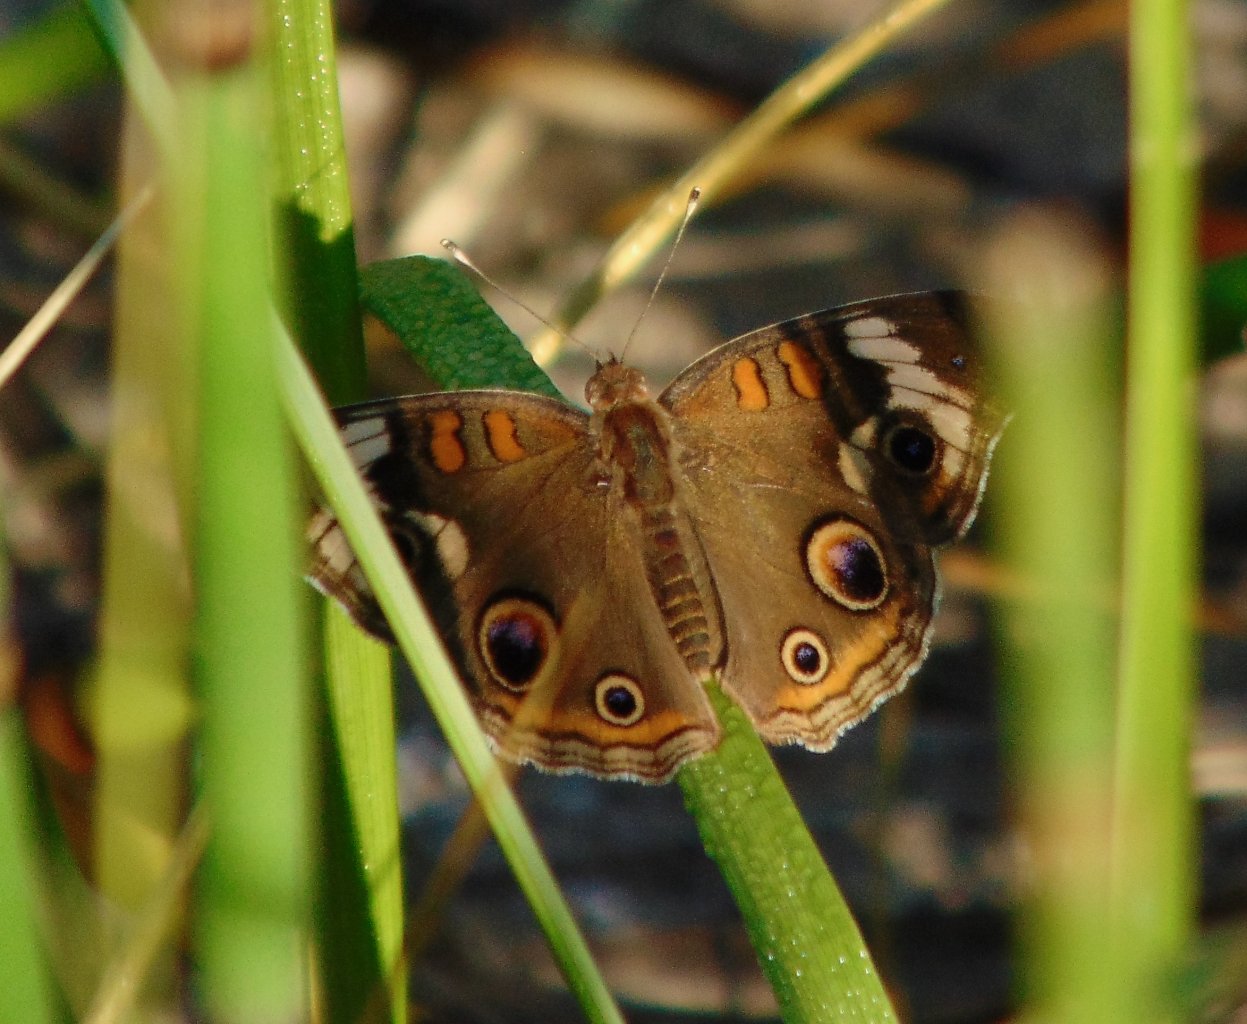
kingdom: Animalia
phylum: Arthropoda
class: Insecta
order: Lepidoptera
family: Nymphalidae
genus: Junonia
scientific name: Junonia coenia
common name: Common Buckeye
